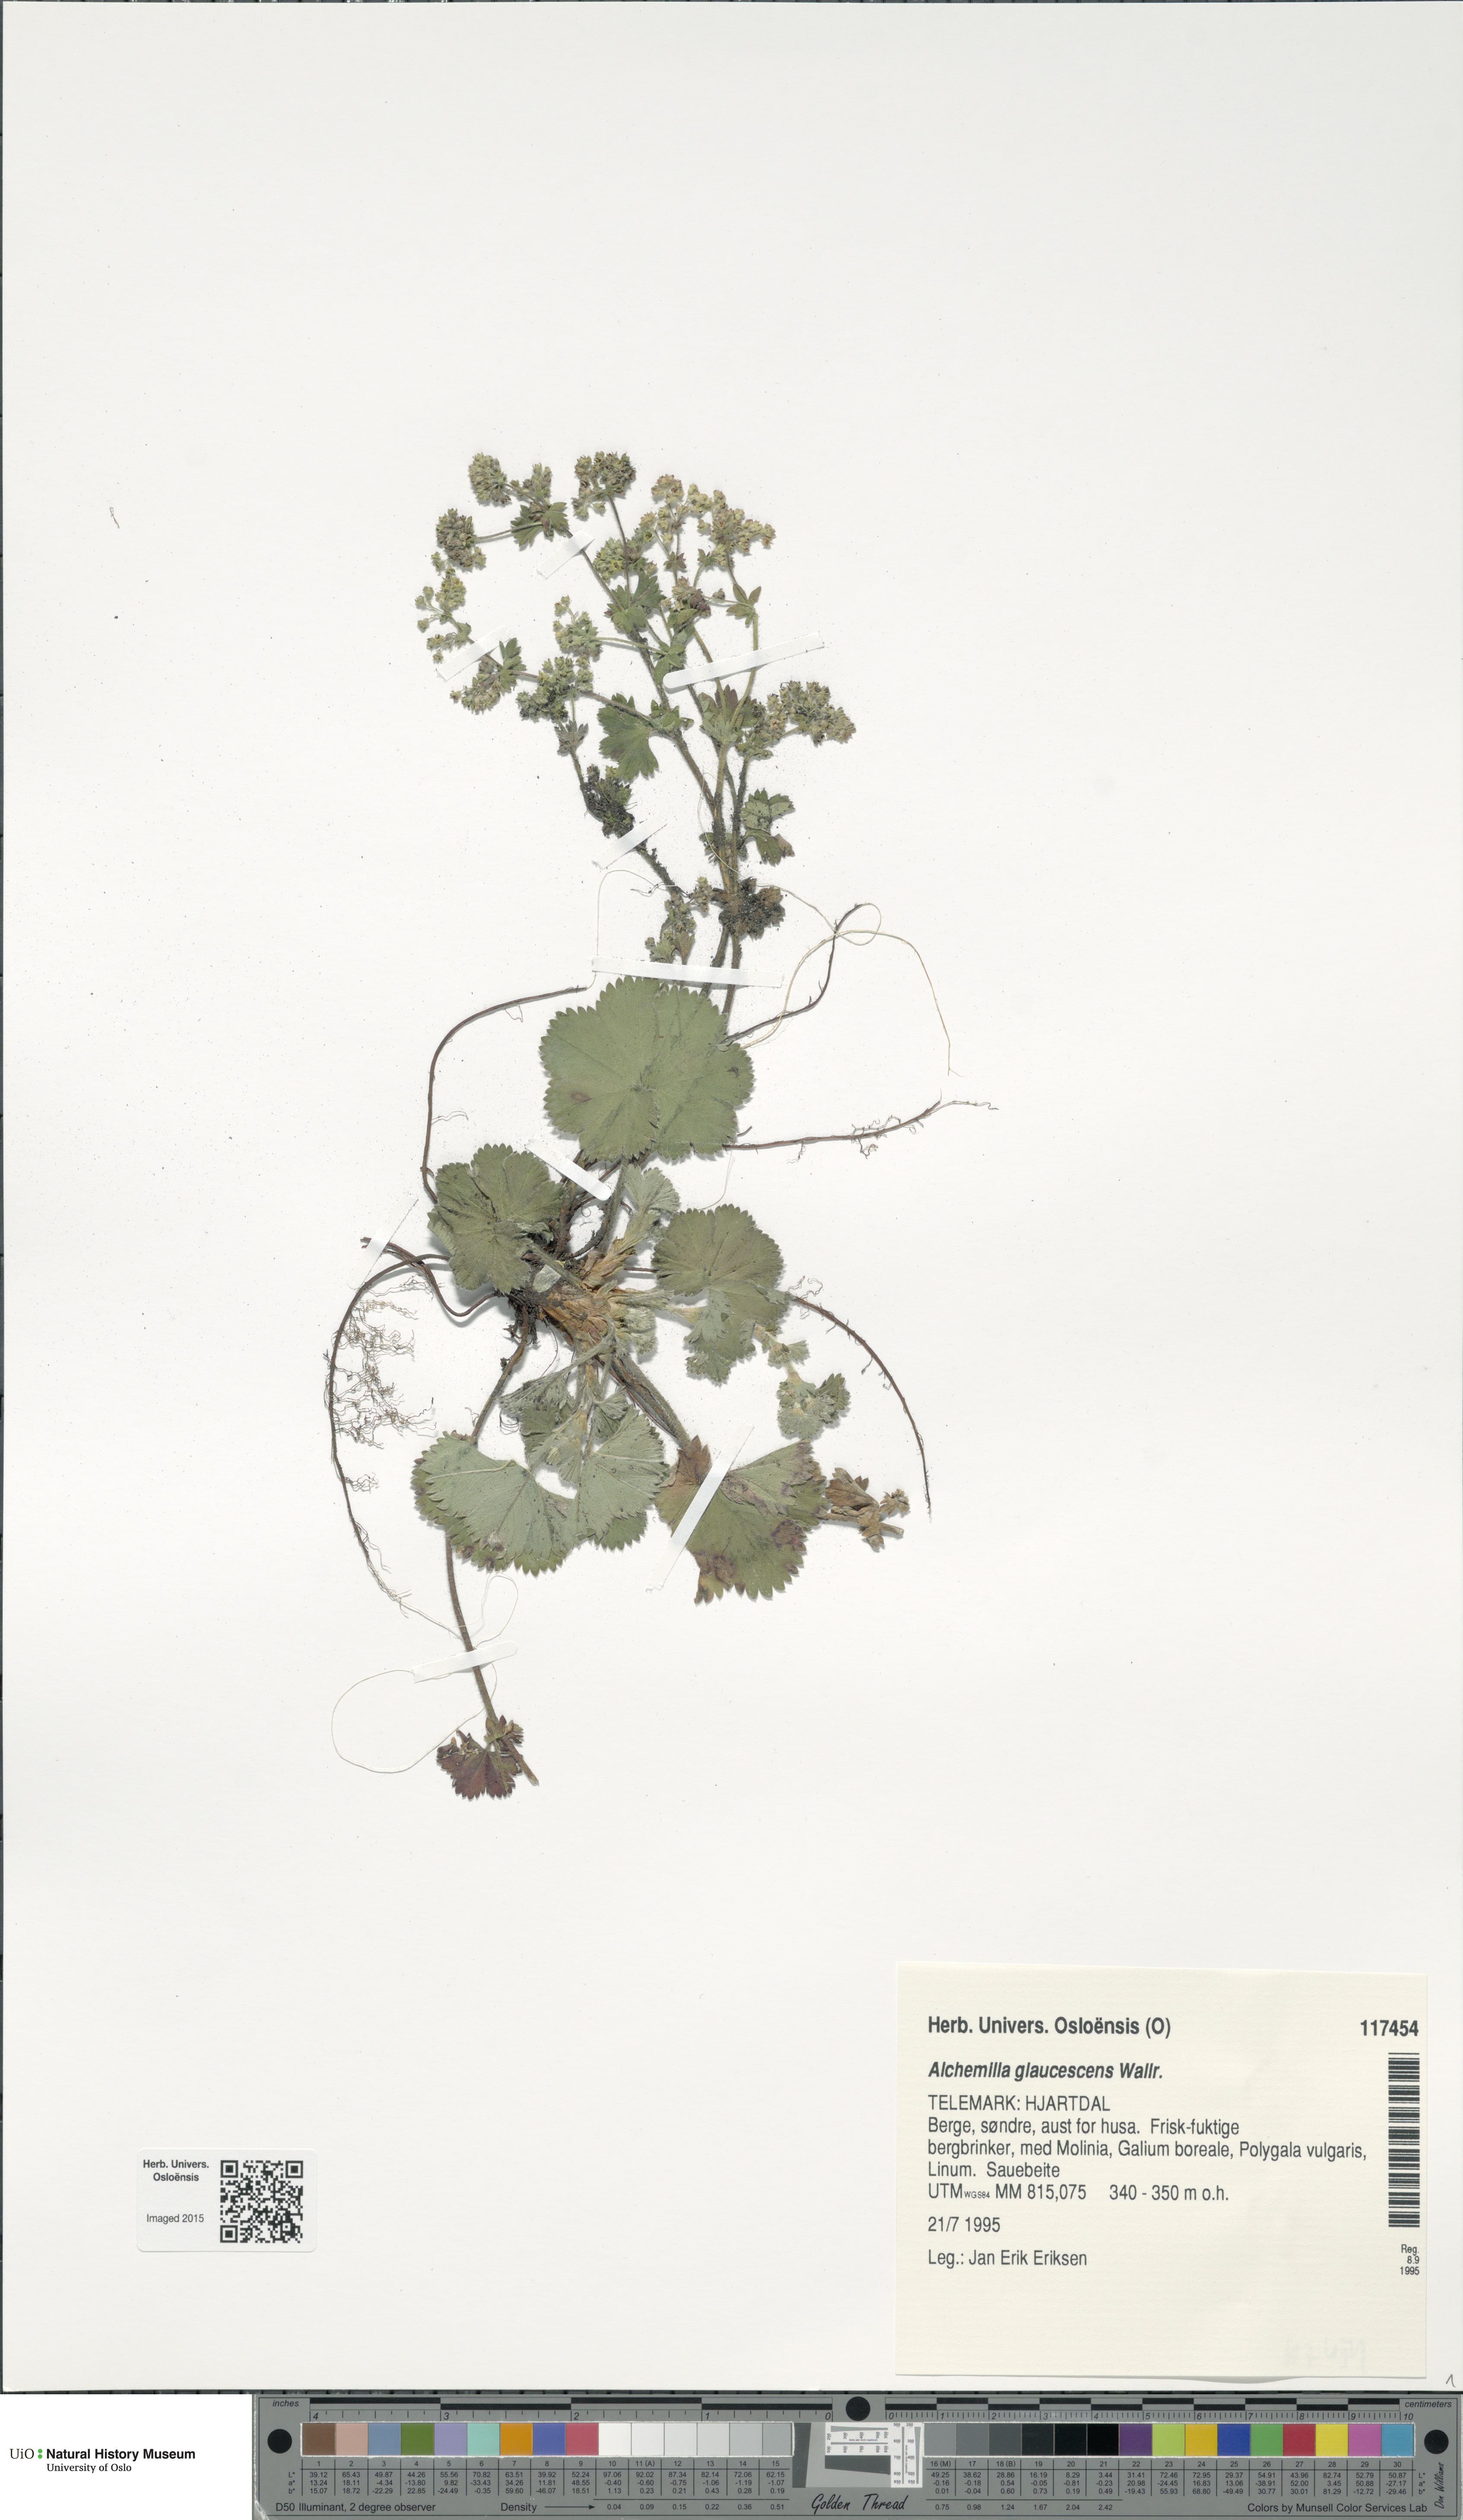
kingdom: Plantae
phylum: Tracheophyta
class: Magnoliopsida
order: Rosales
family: Rosaceae
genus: Alchemilla
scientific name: Alchemilla glaucescens
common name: Silky lady's mantle
